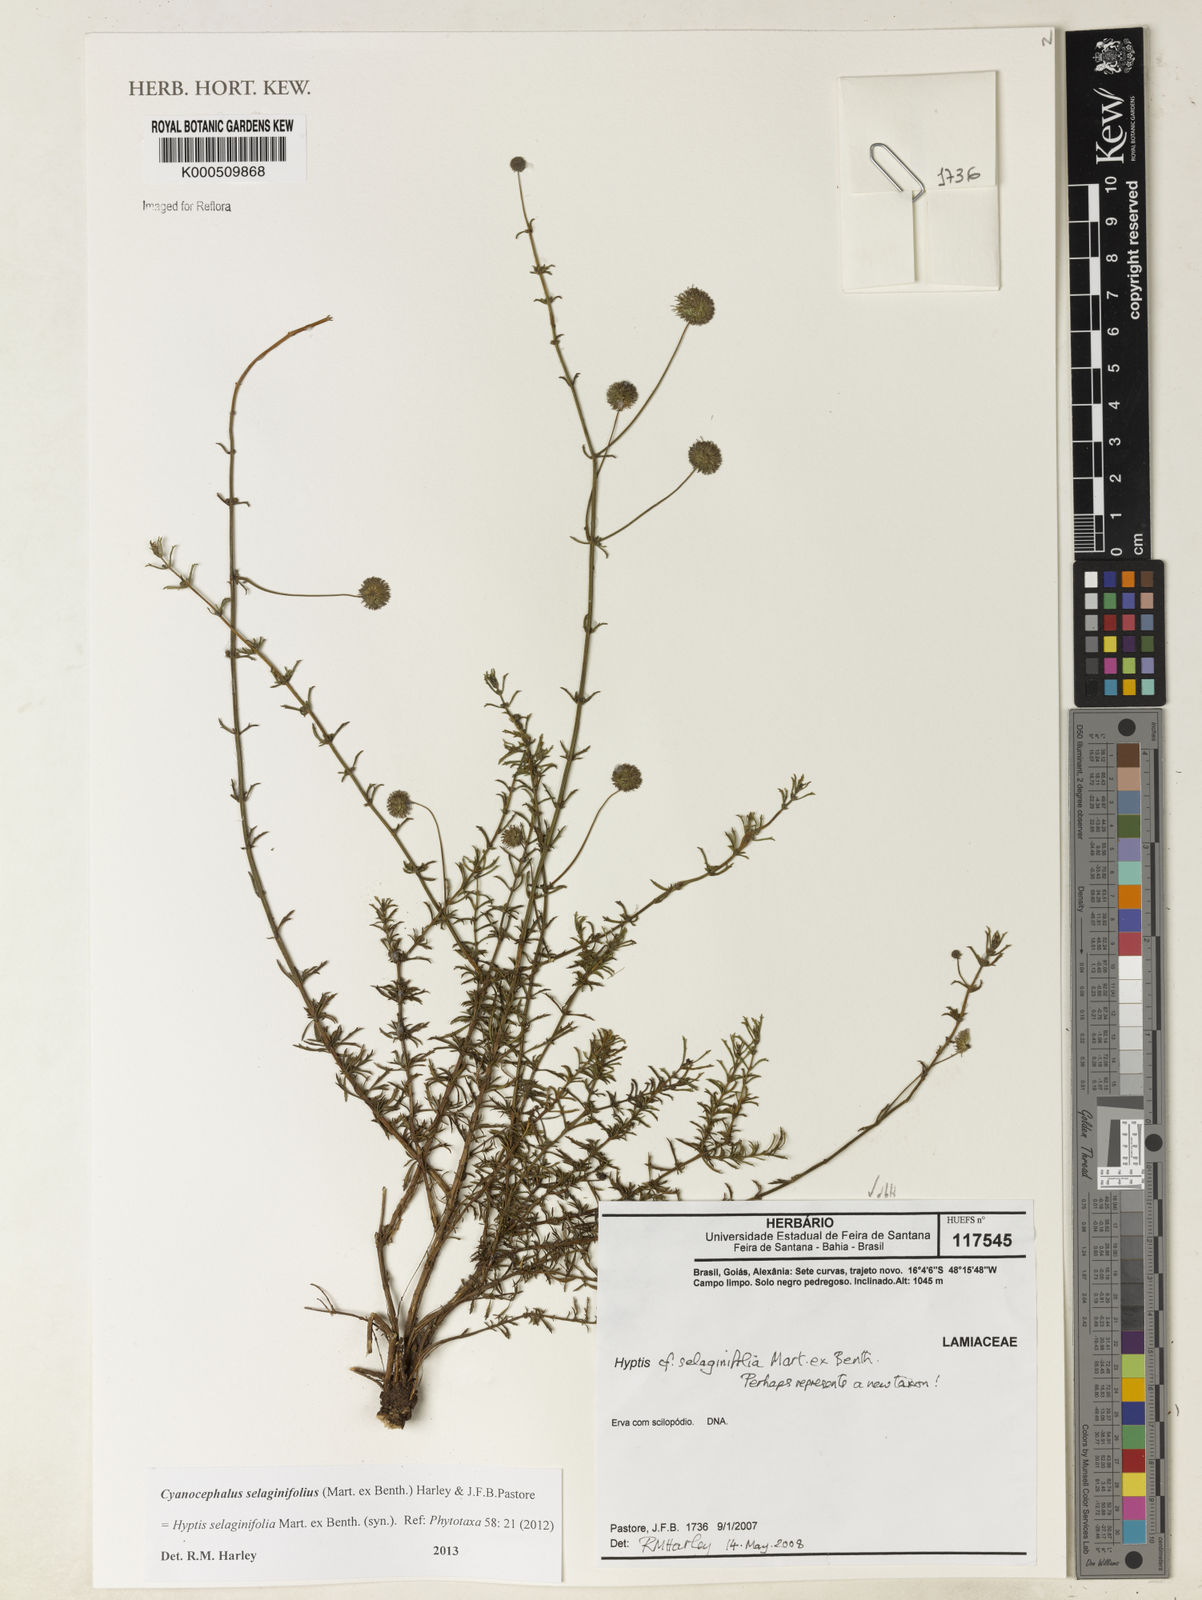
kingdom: Plantae
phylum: Tracheophyta
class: Magnoliopsida
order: Lamiales
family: Lamiaceae
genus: Cyanocephalus
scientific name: Cyanocephalus selaginifolius
